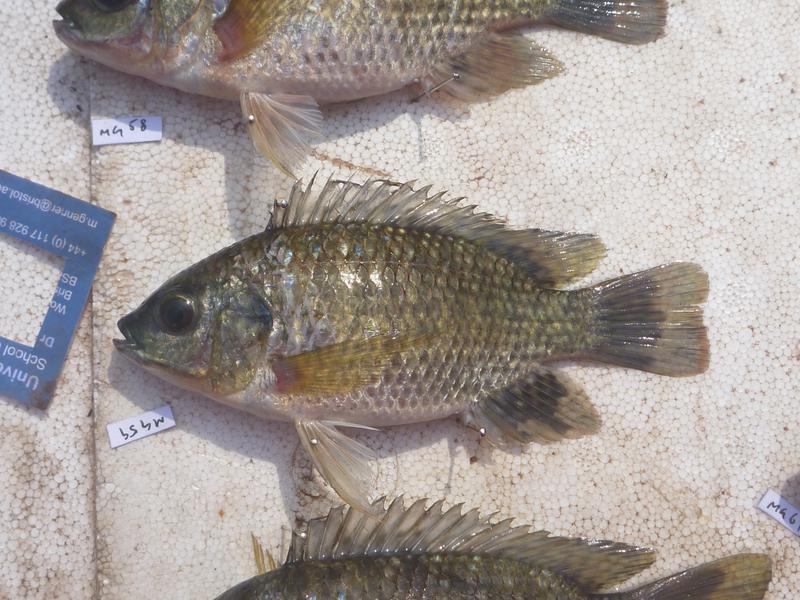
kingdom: Animalia
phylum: Chordata
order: Perciformes
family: Cichlidae
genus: Oreochromis
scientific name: Oreochromis leucostictus
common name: Blue spotted tilapia
